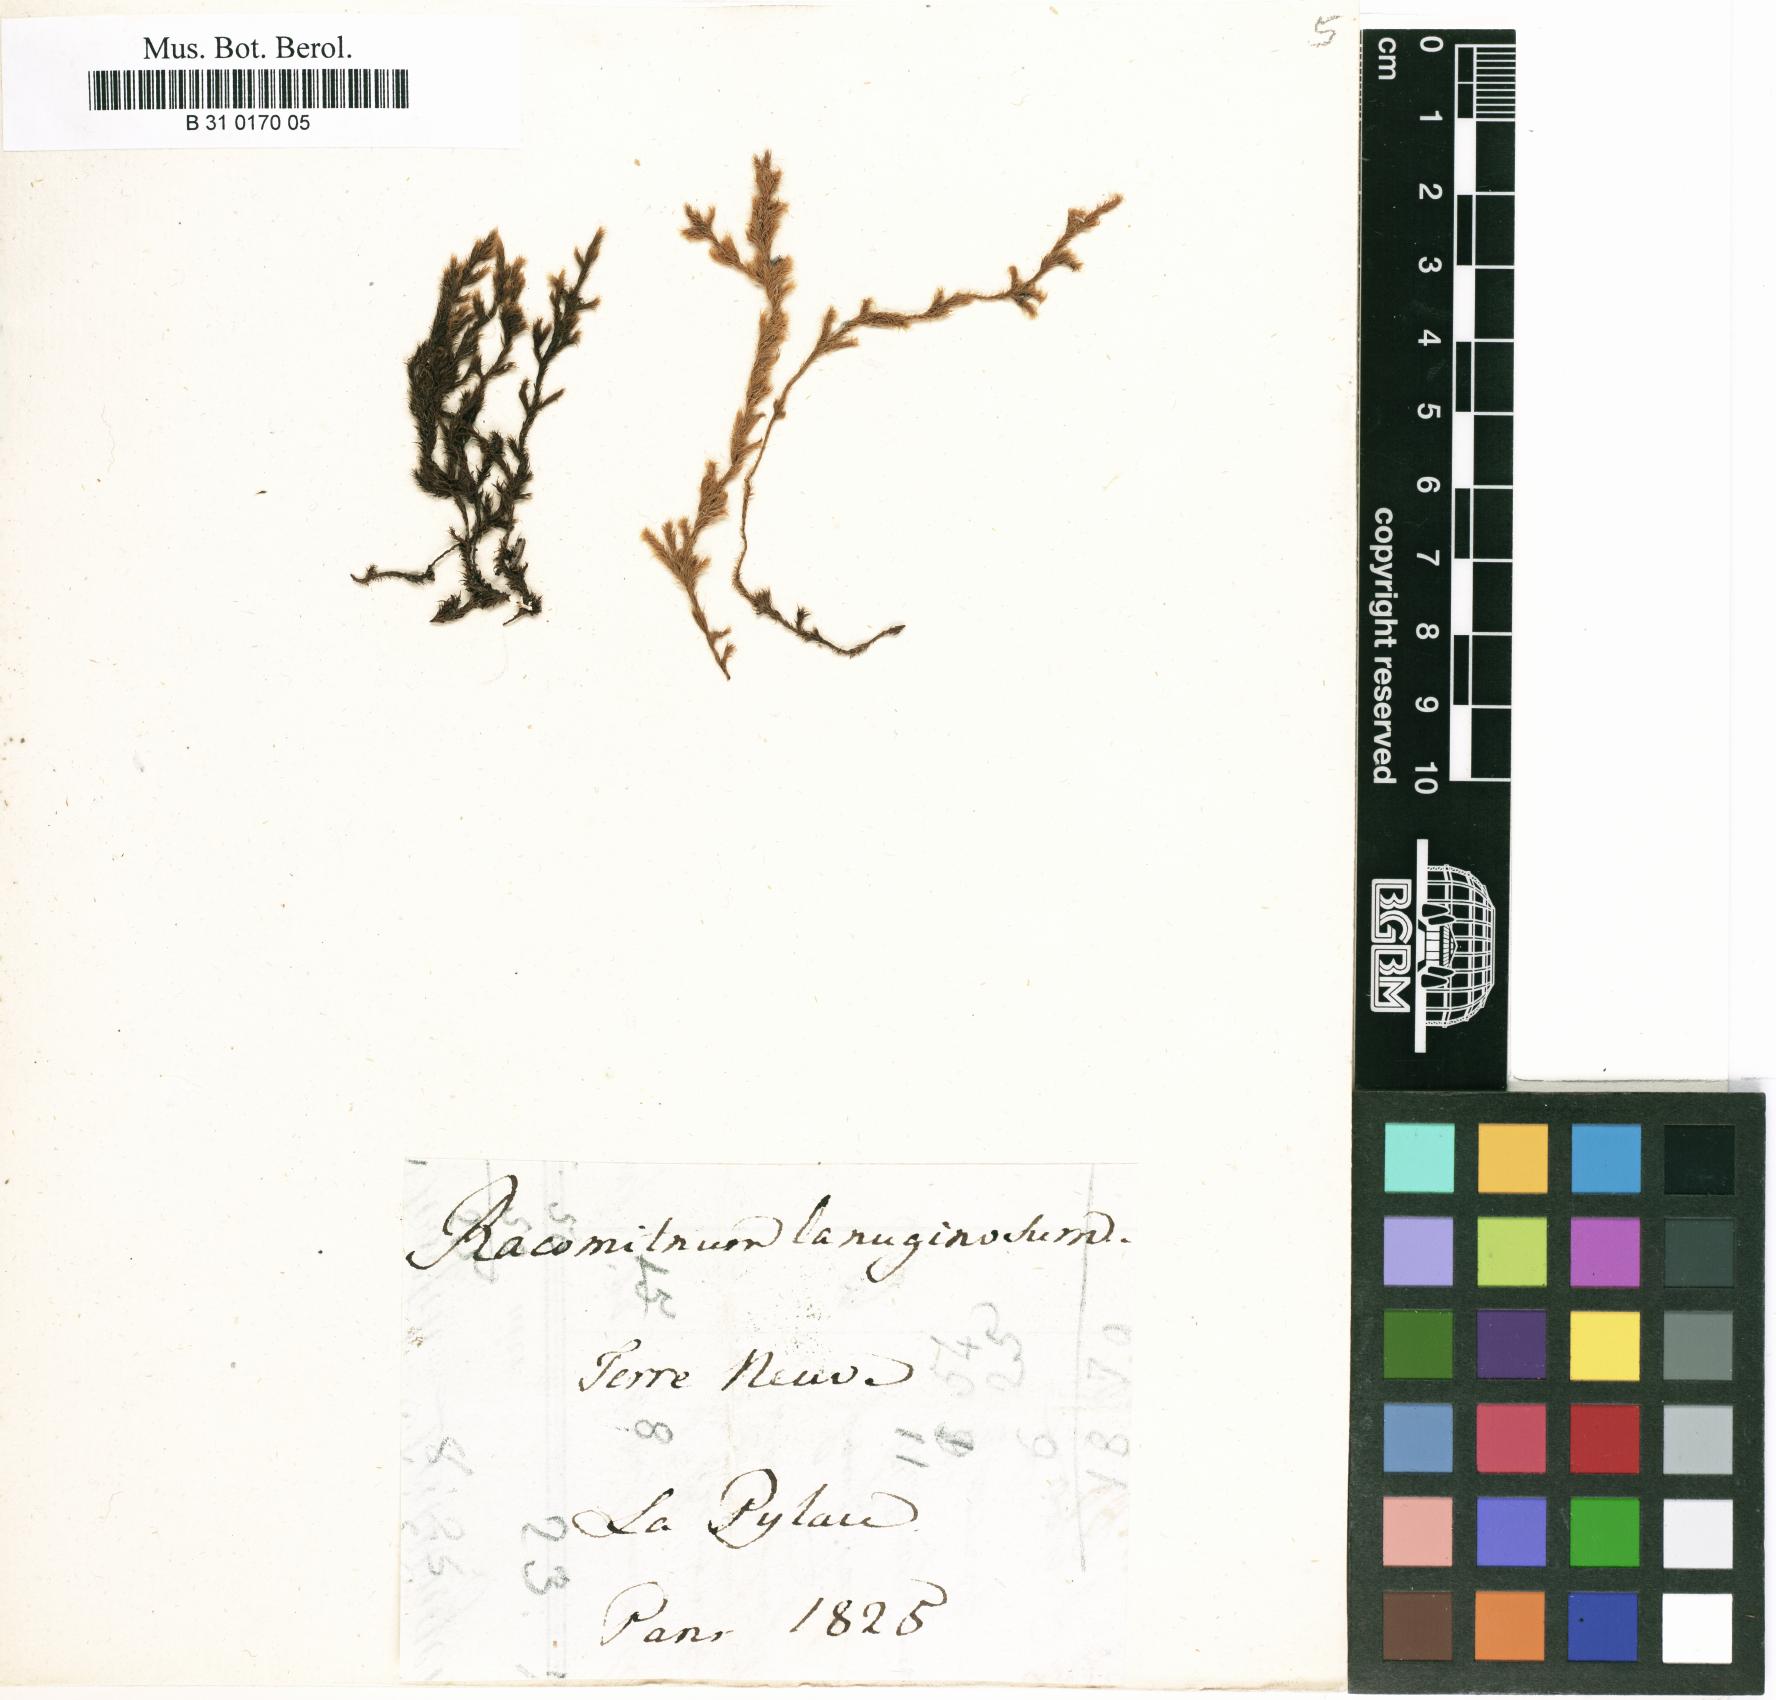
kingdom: Plantae
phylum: Bryophyta
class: Bryopsida
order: Grimmiales
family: Grimmiaceae
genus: Racomitrium
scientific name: Racomitrium lanuginosum
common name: Hoary rock moss
